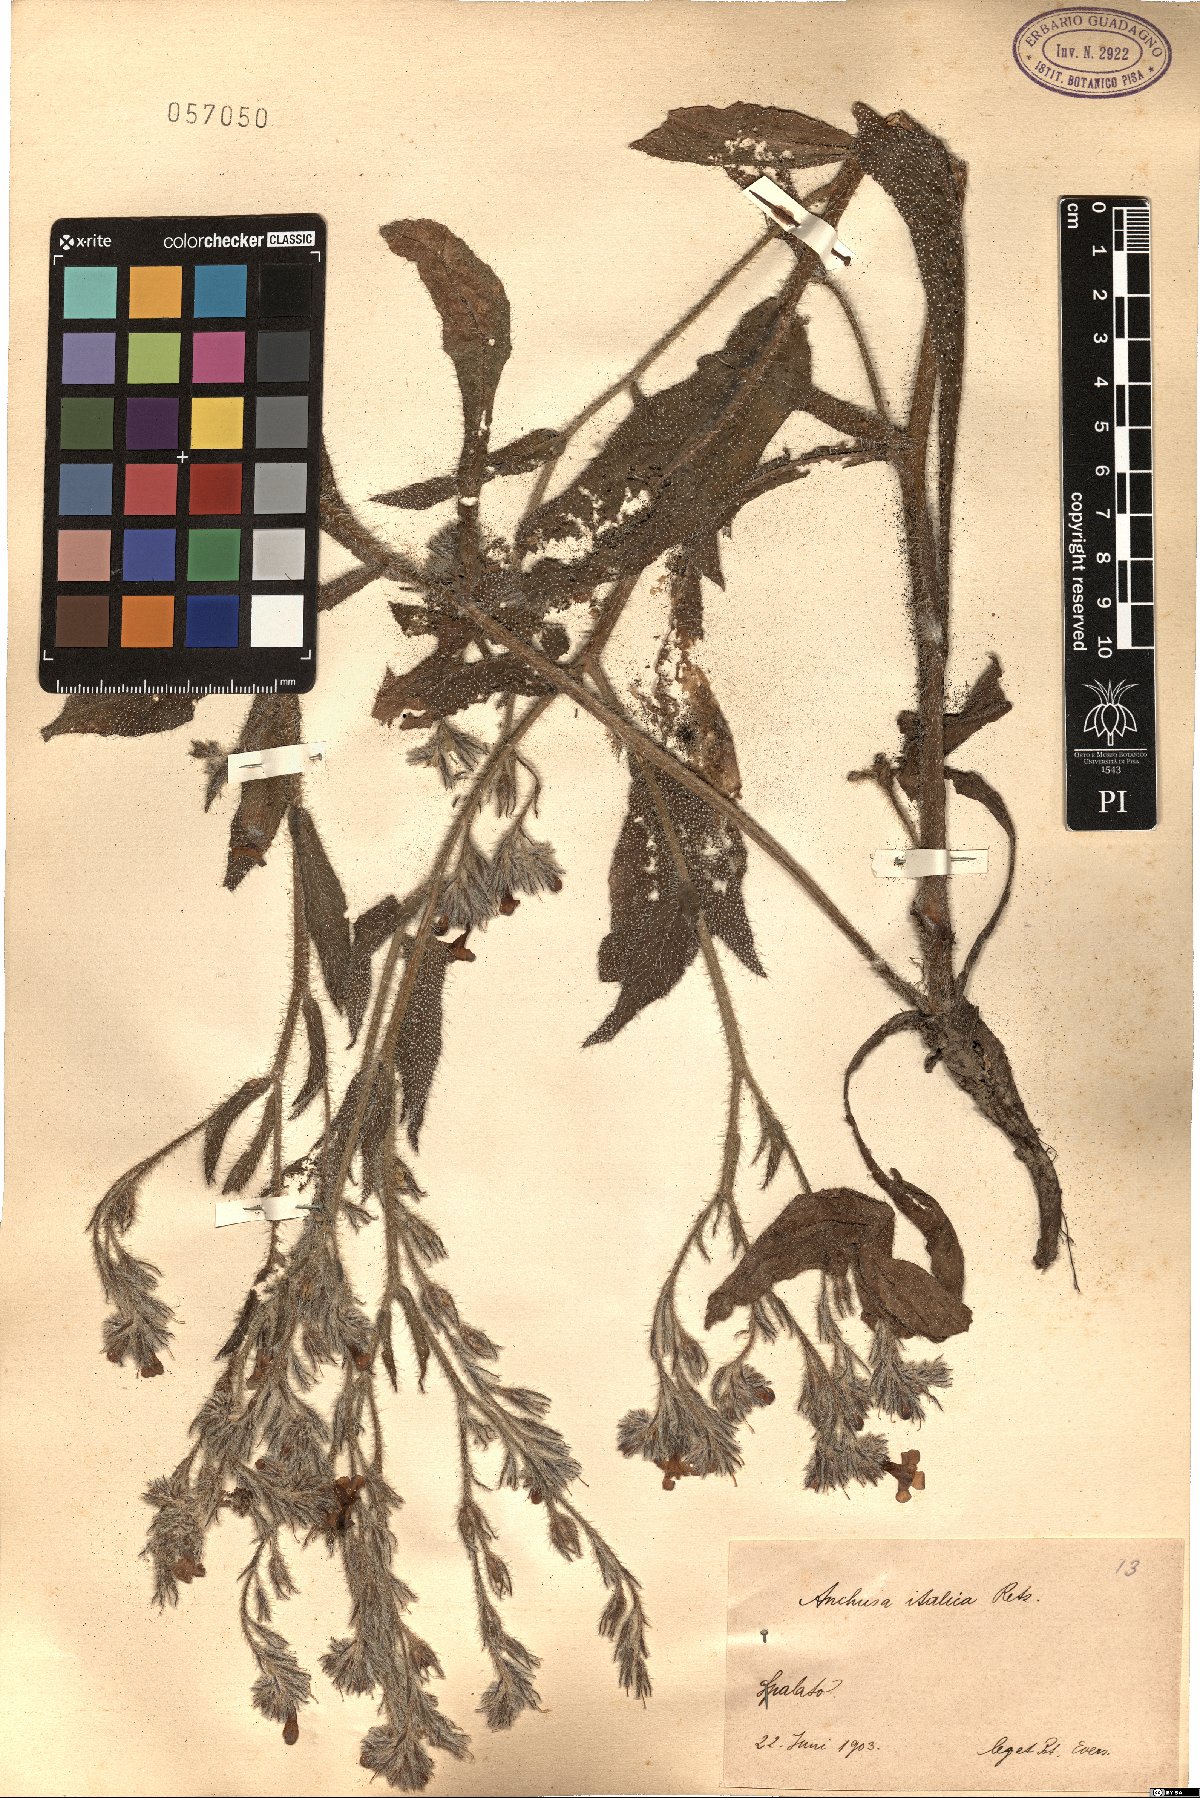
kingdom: Plantae
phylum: Tracheophyta
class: Magnoliopsida
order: Boraginales
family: Boraginaceae
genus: Anchusa
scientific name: Anchusa azurea
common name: Garden anchusa
